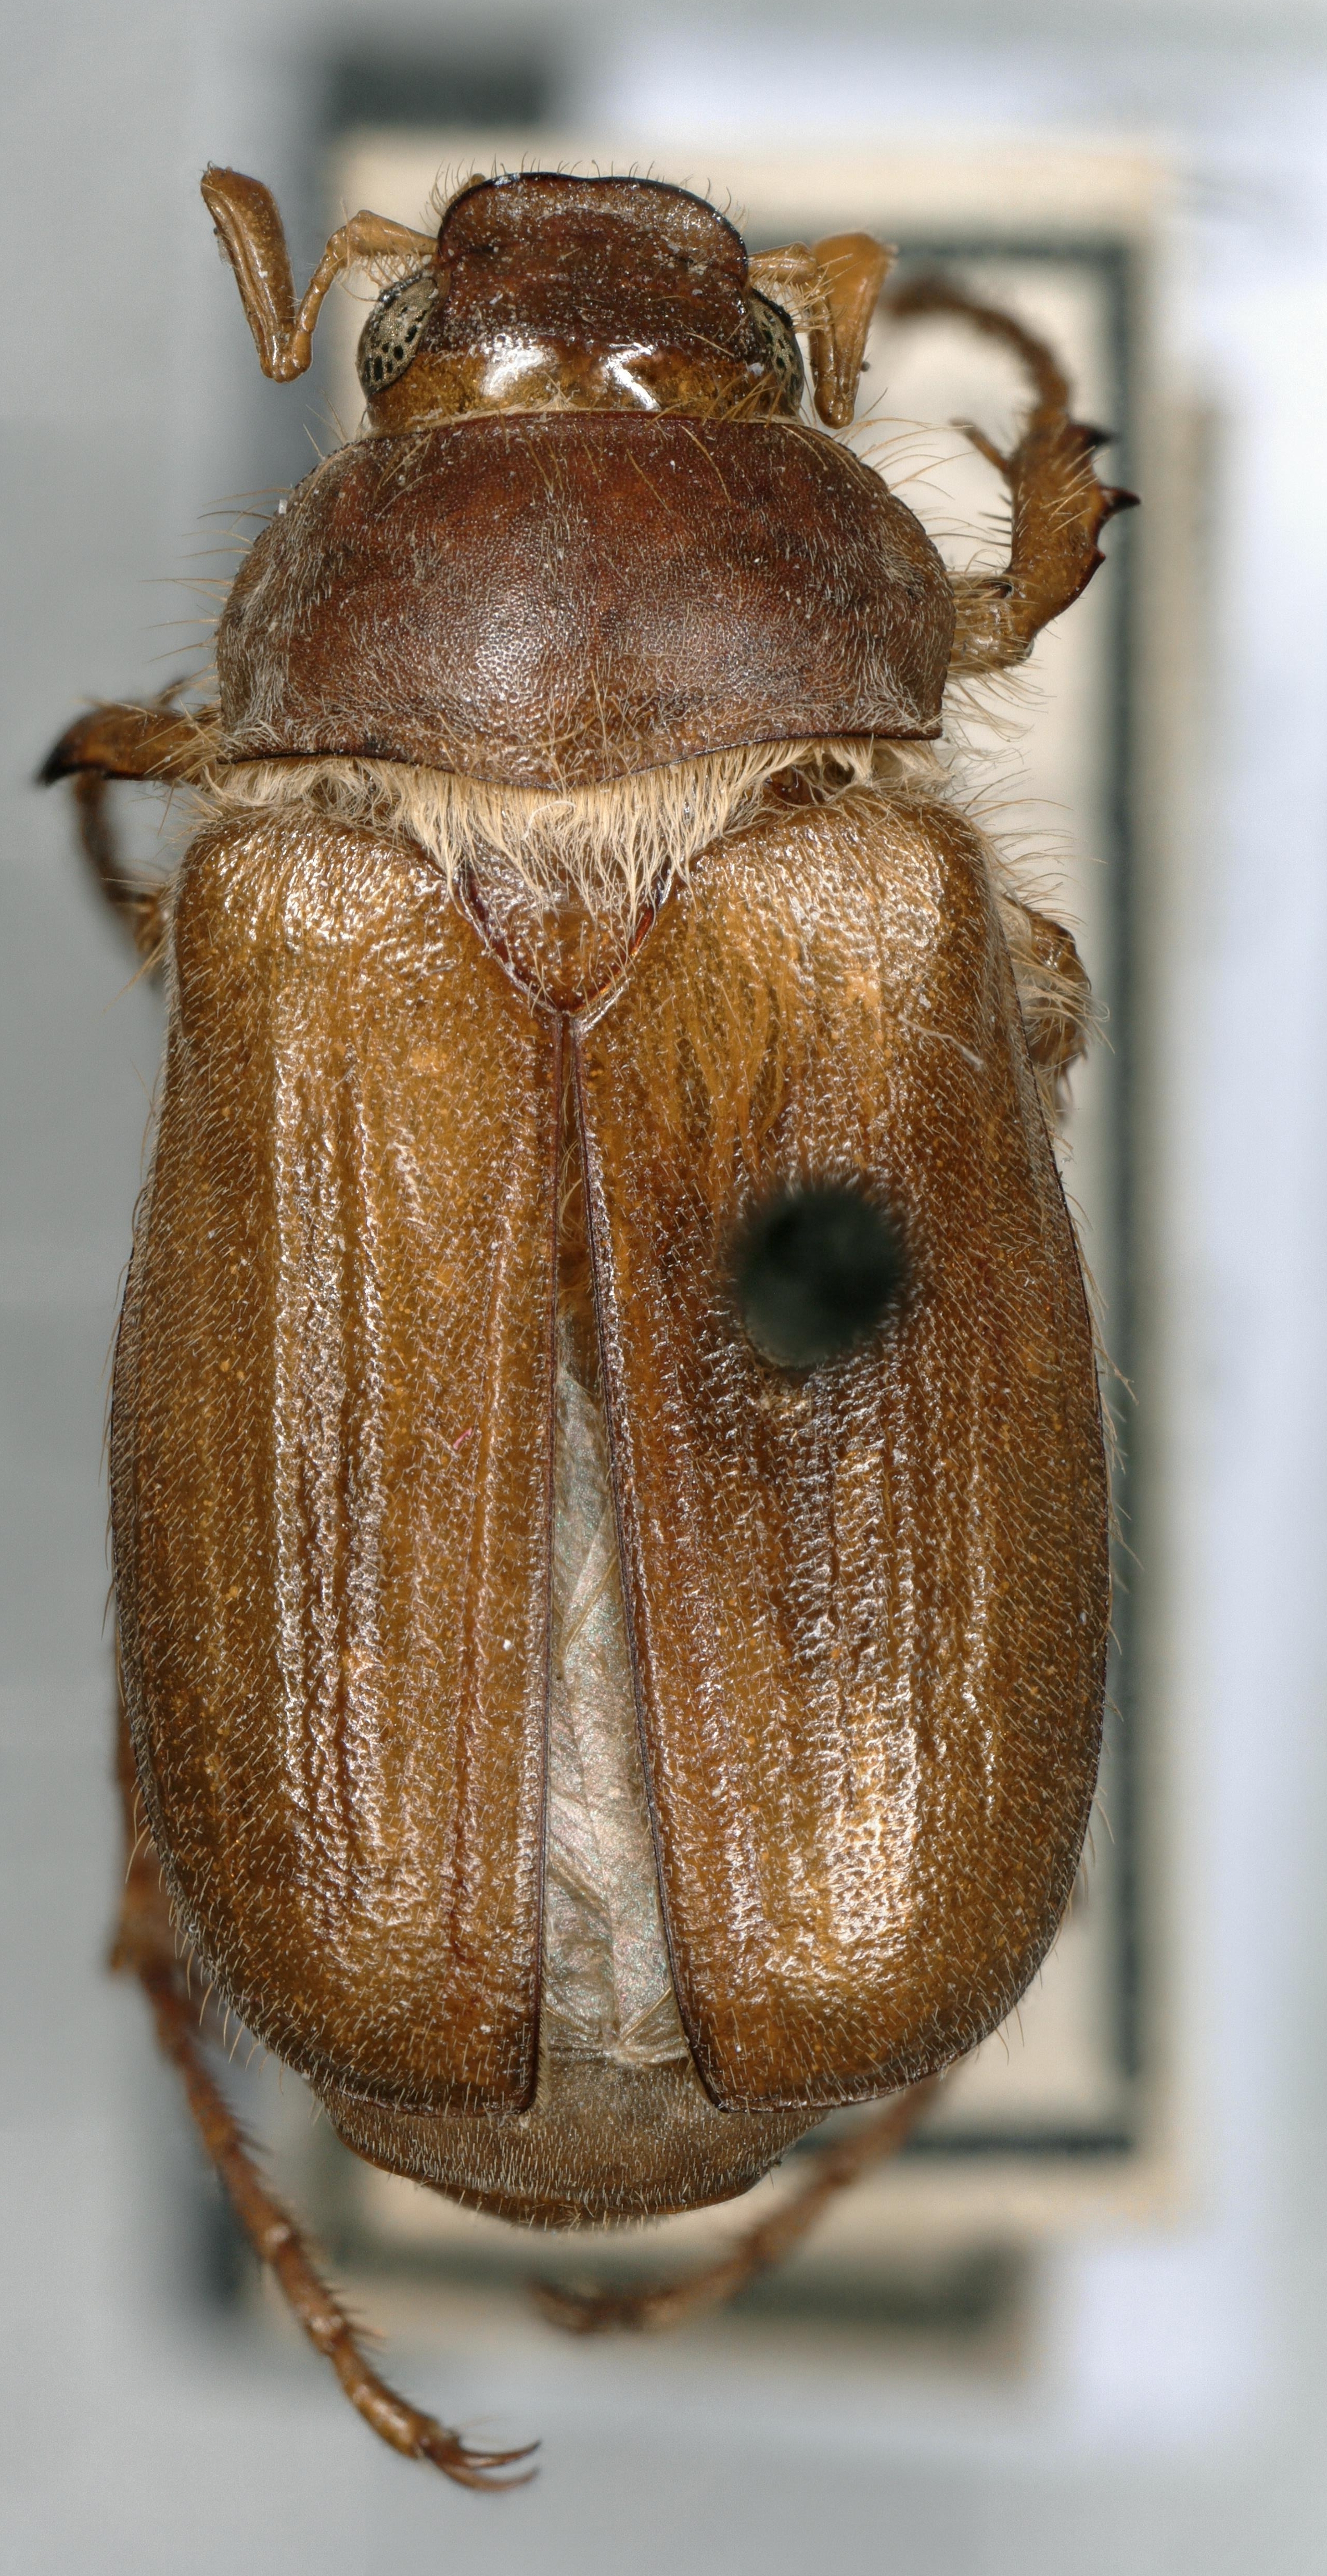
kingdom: Animalia
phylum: Arthropoda
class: Insecta
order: Coleoptera
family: Scarabaeidae
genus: Amphimallon
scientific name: Amphimallon majale
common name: European chafer
